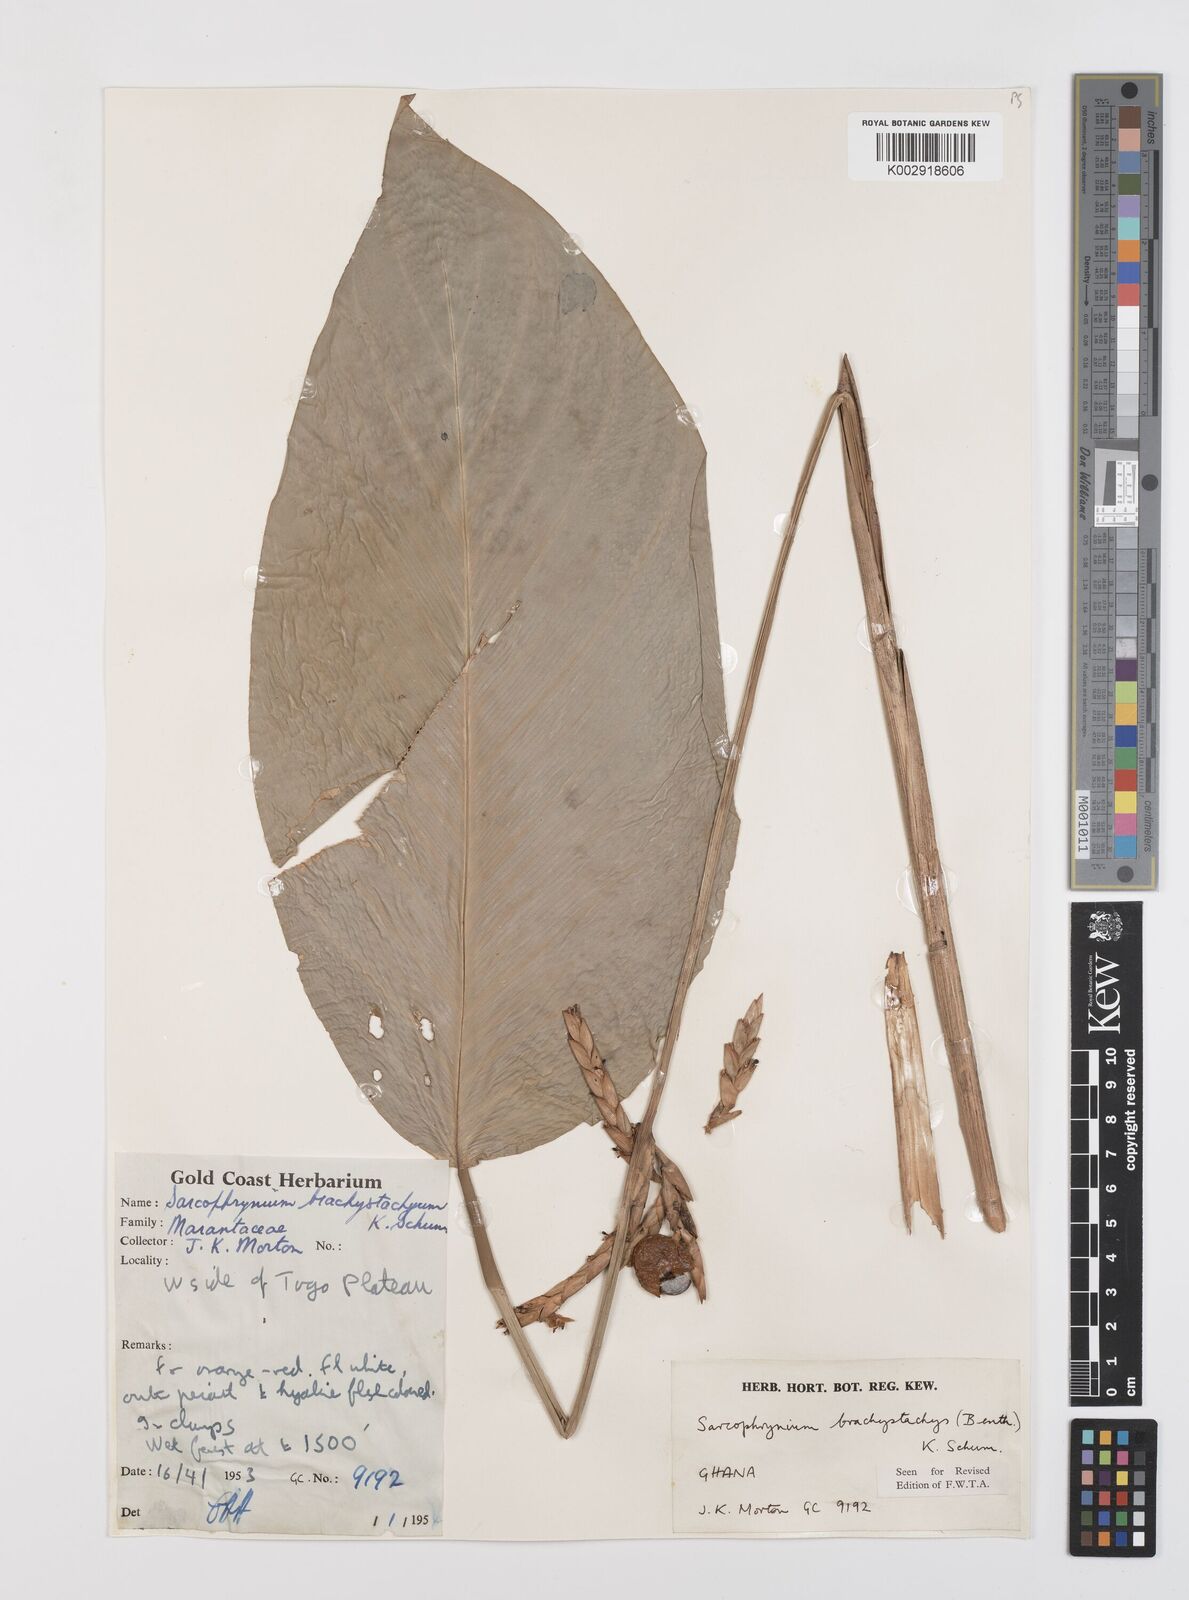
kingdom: Plantae
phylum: Tracheophyta
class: Liliopsida
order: Zingiberales
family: Marantaceae
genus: Sarcophrynium
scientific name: Sarcophrynium brachystachyum
